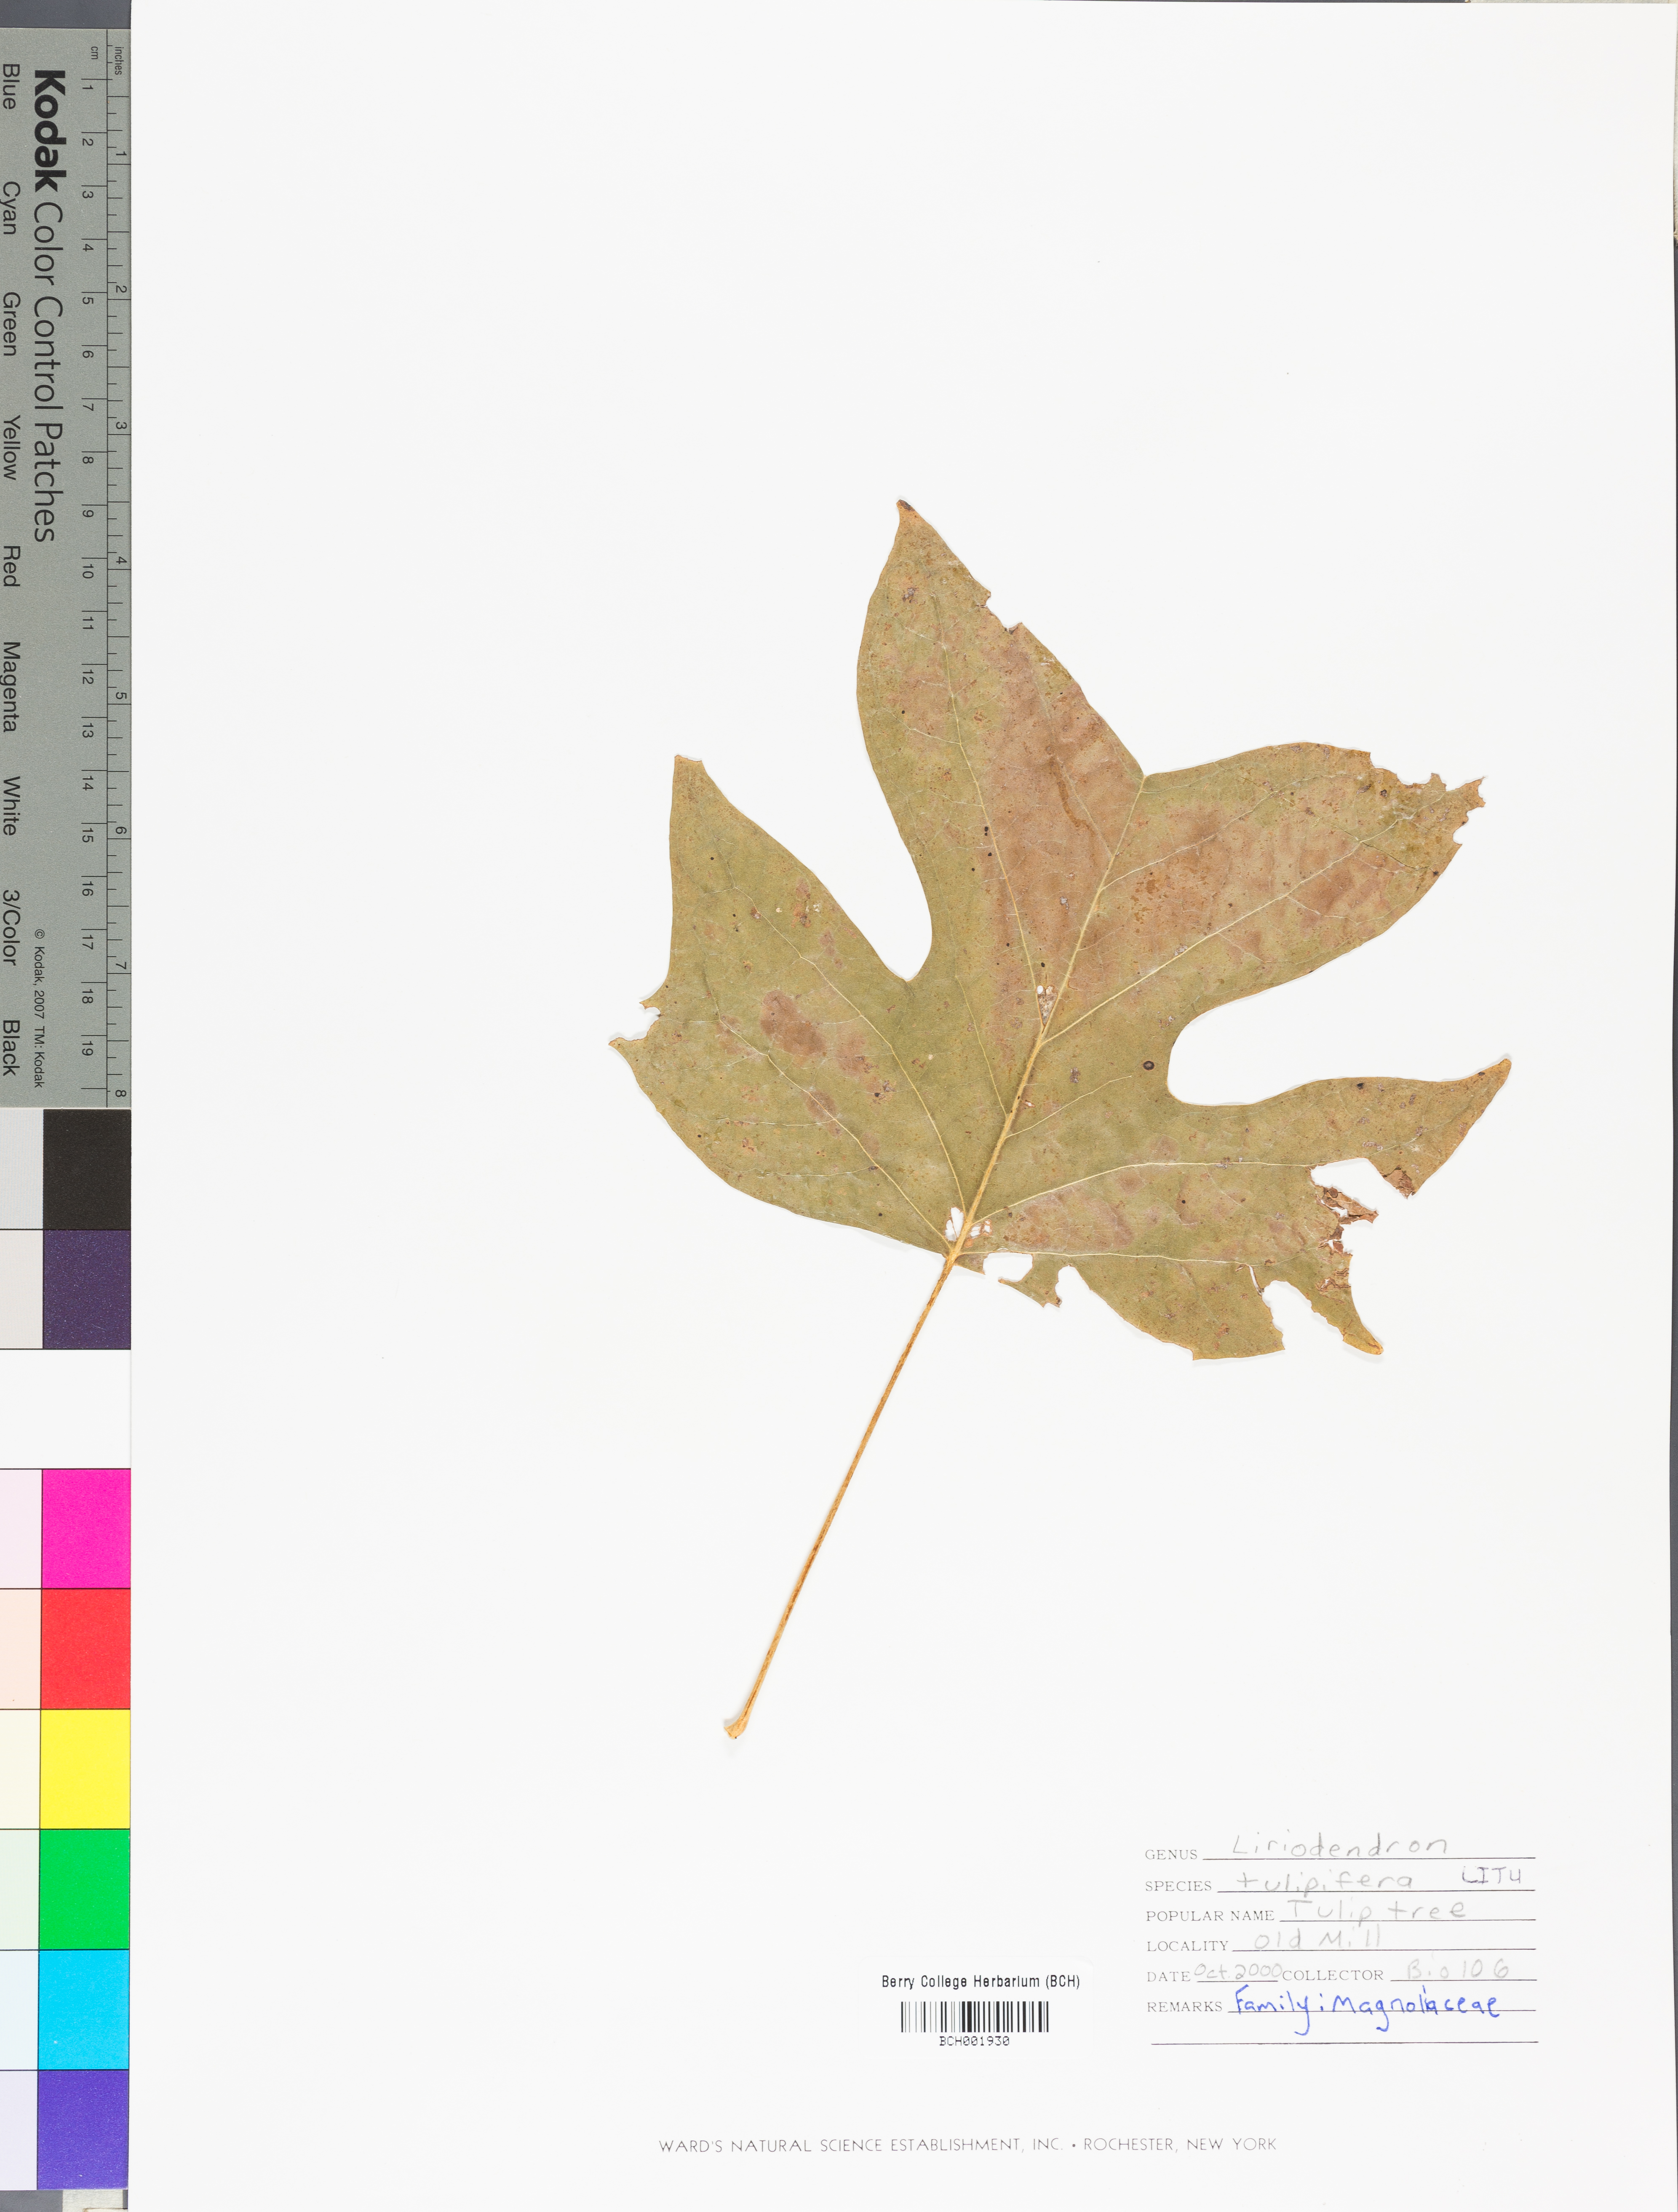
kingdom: Plantae
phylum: Tracheophyta
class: Magnoliopsida
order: Magnoliales
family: Magnoliaceae
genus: Liriodendron
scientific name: Liriodendron tulipifera
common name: Tulip tree
